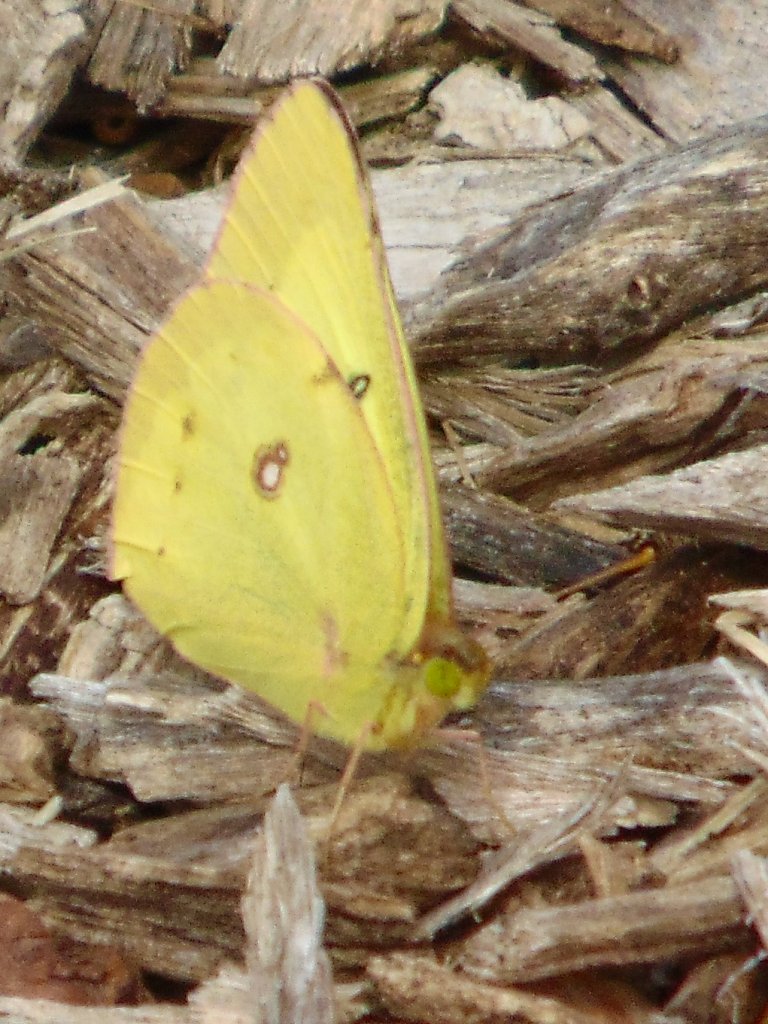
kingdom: Animalia
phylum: Arthropoda
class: Insecta
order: Lepidoptera
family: Pieridae
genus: Colias
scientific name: Colias philodice
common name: Clouded Sulphur
